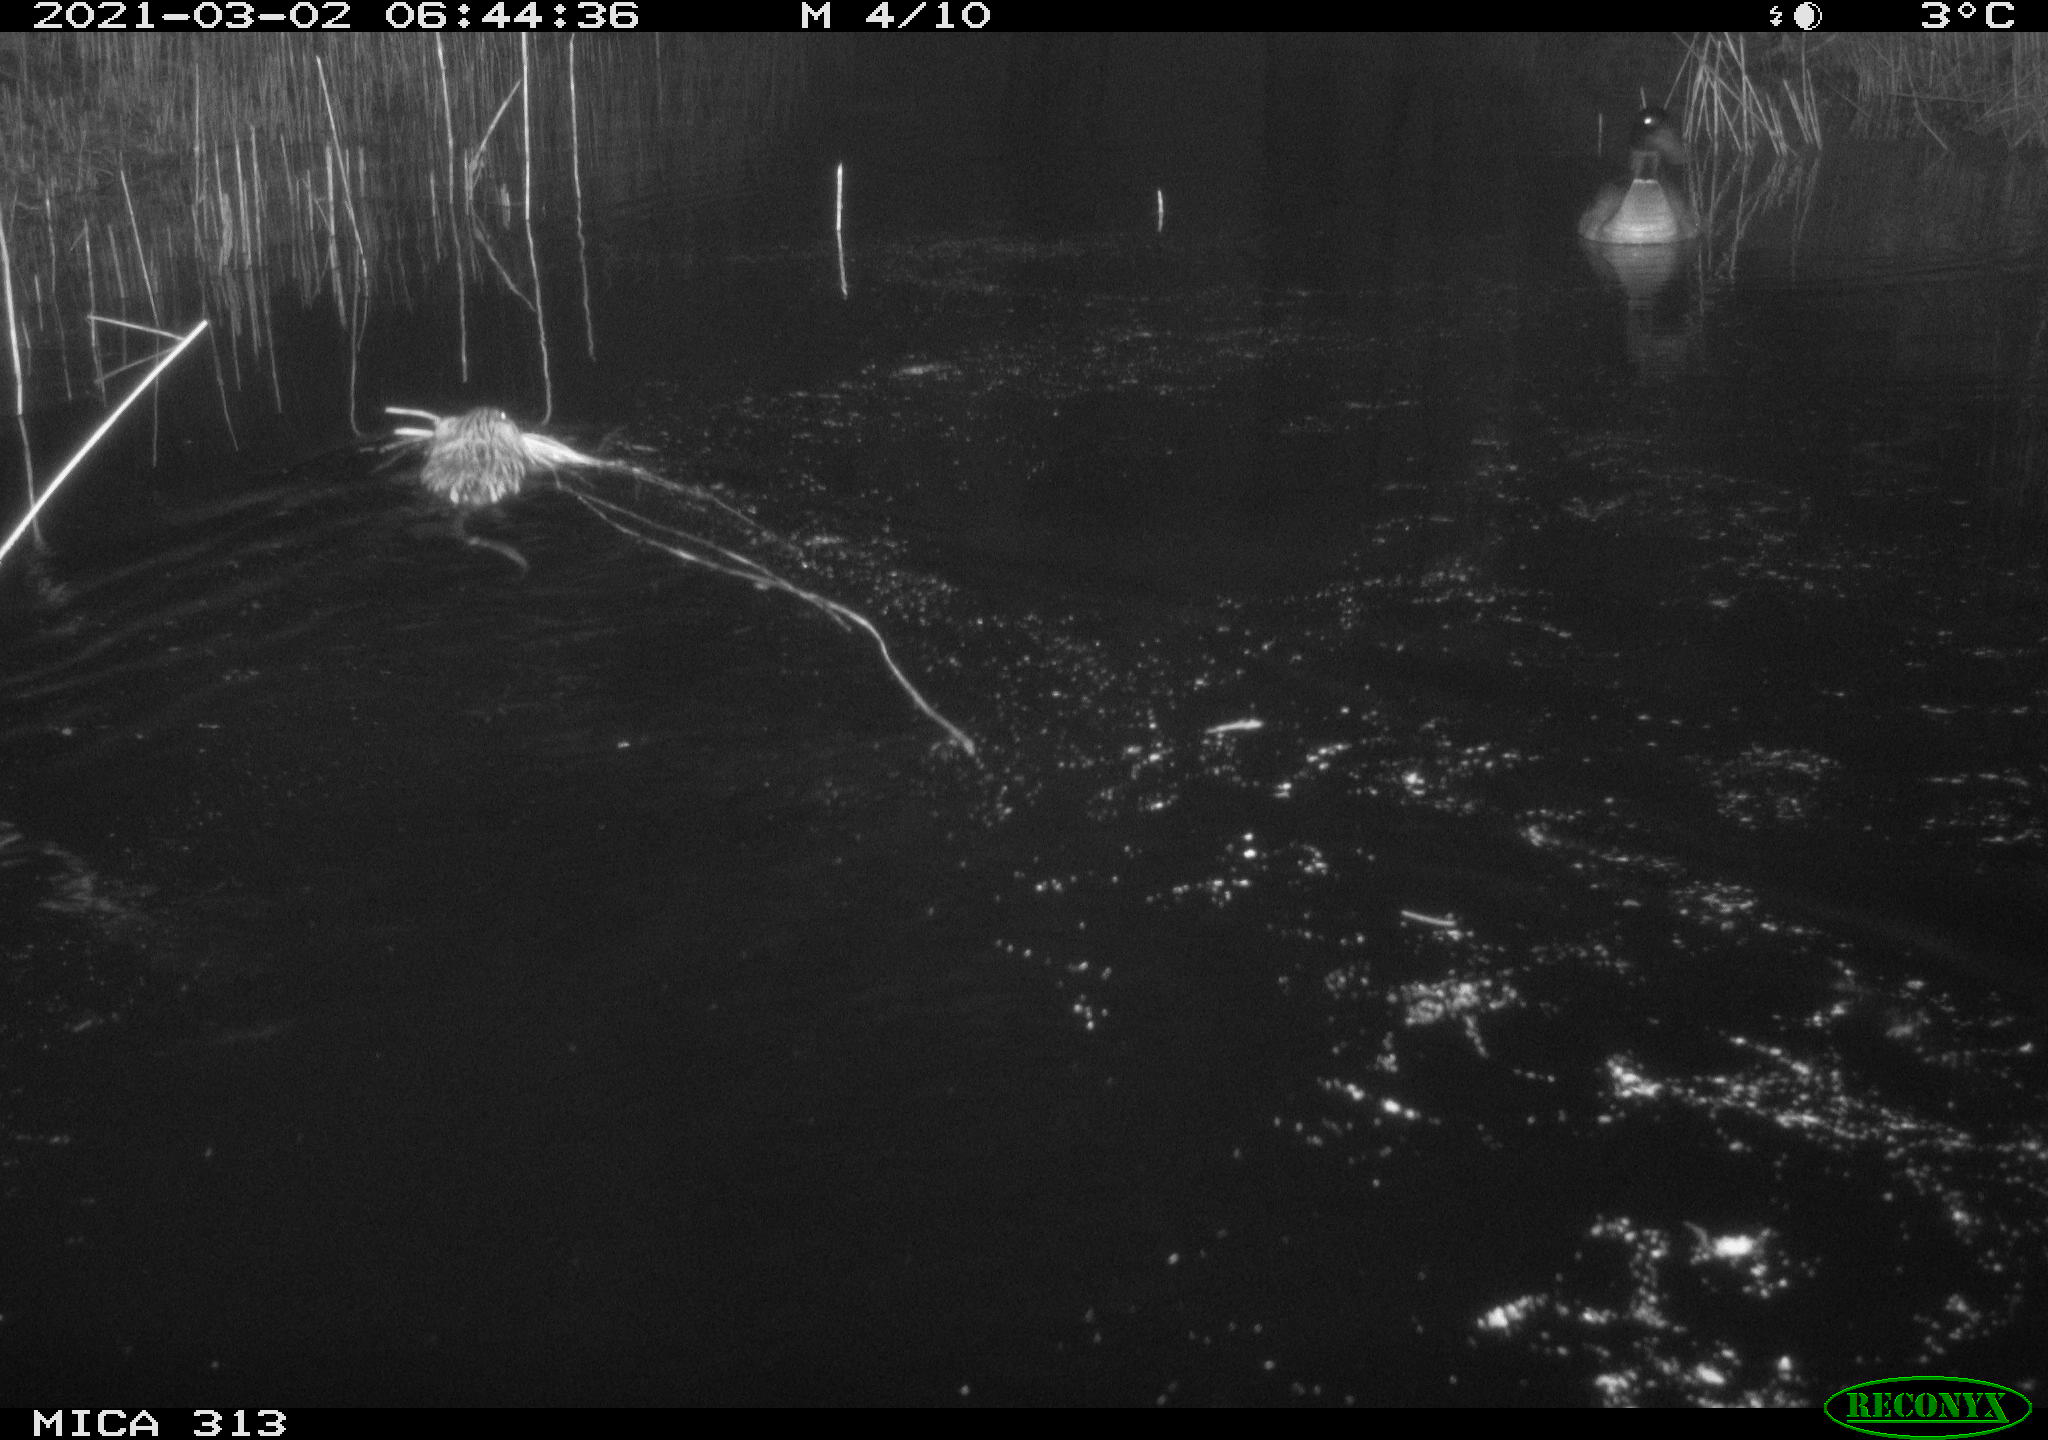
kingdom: Animalia
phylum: Chordata
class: Aves
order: Anseriformes
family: Anatidae
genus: Anas
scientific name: Anas platyrhynchos
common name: Mallard
